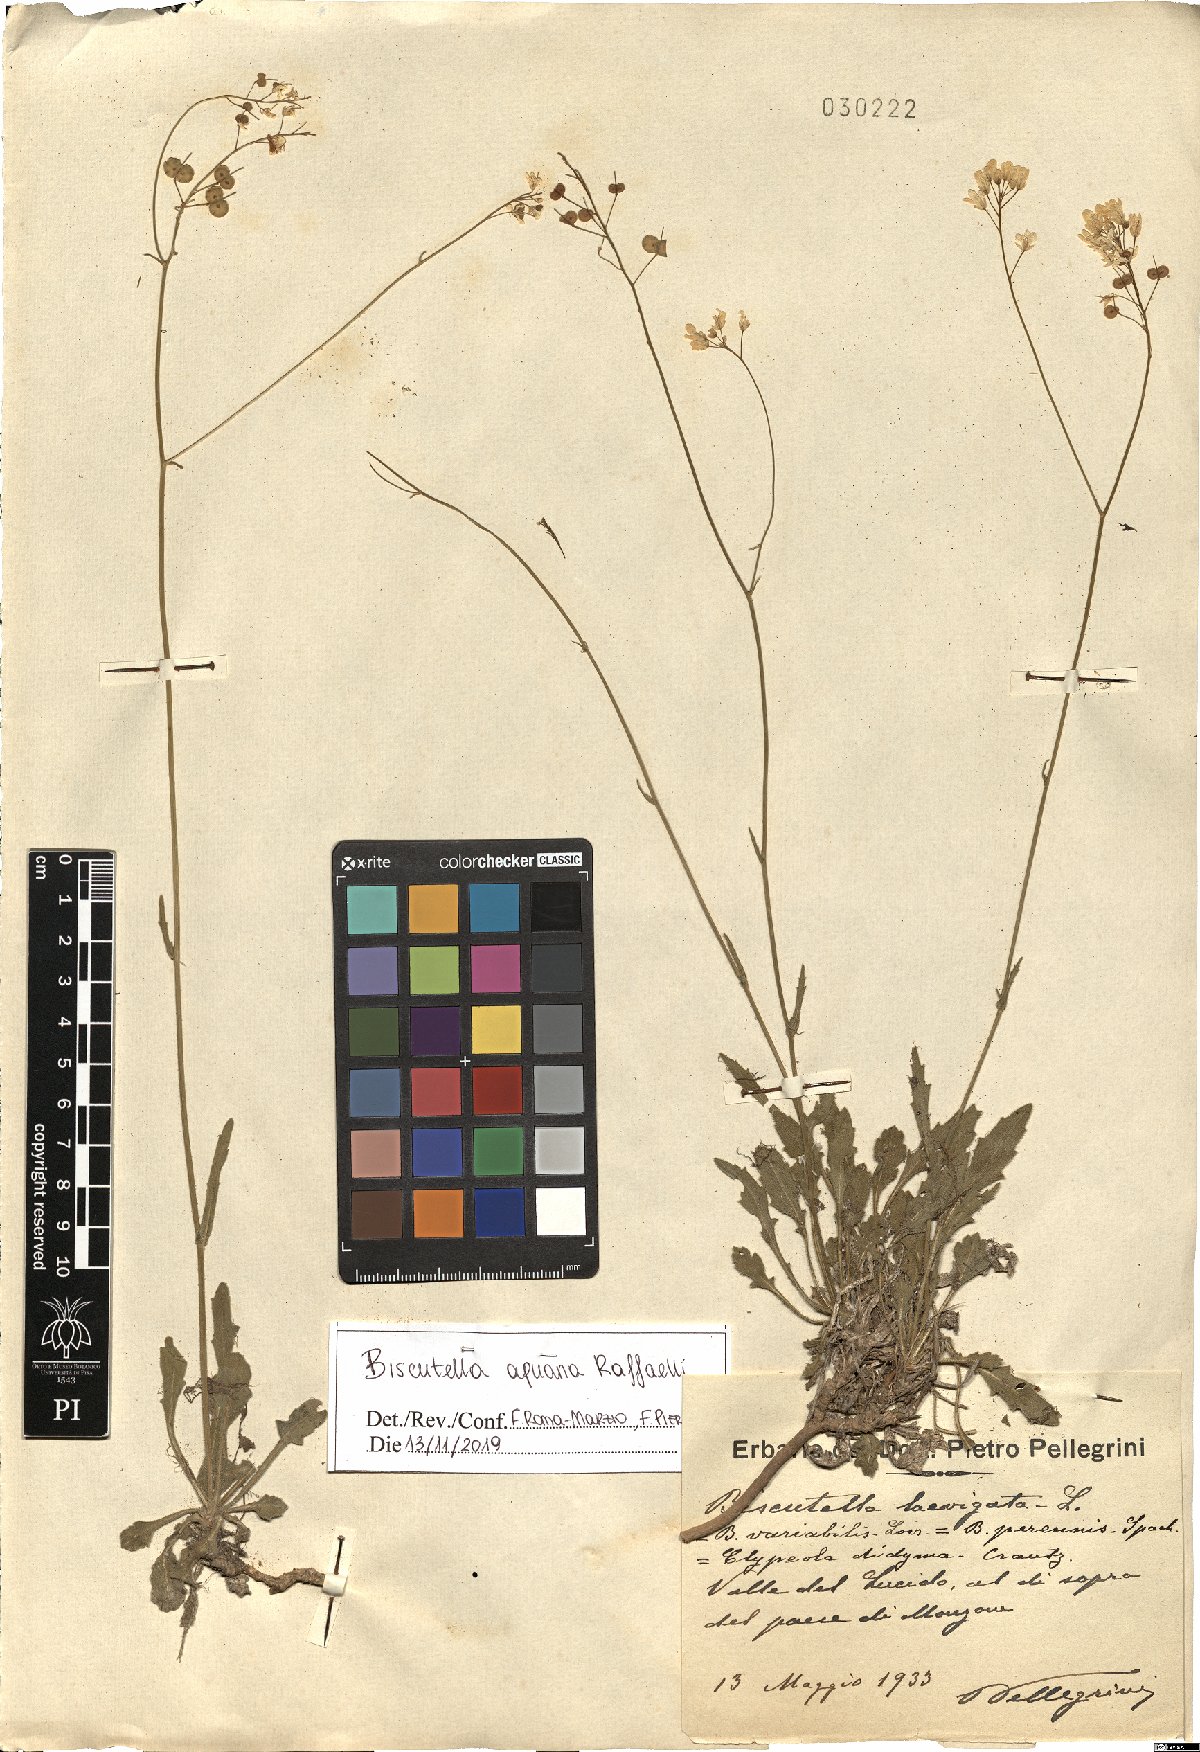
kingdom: Plantae
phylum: Tracheophyta
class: Magnoliopsida
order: Brassicales
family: Brassicaceae
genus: Biscutella
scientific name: Biscutella apuana
